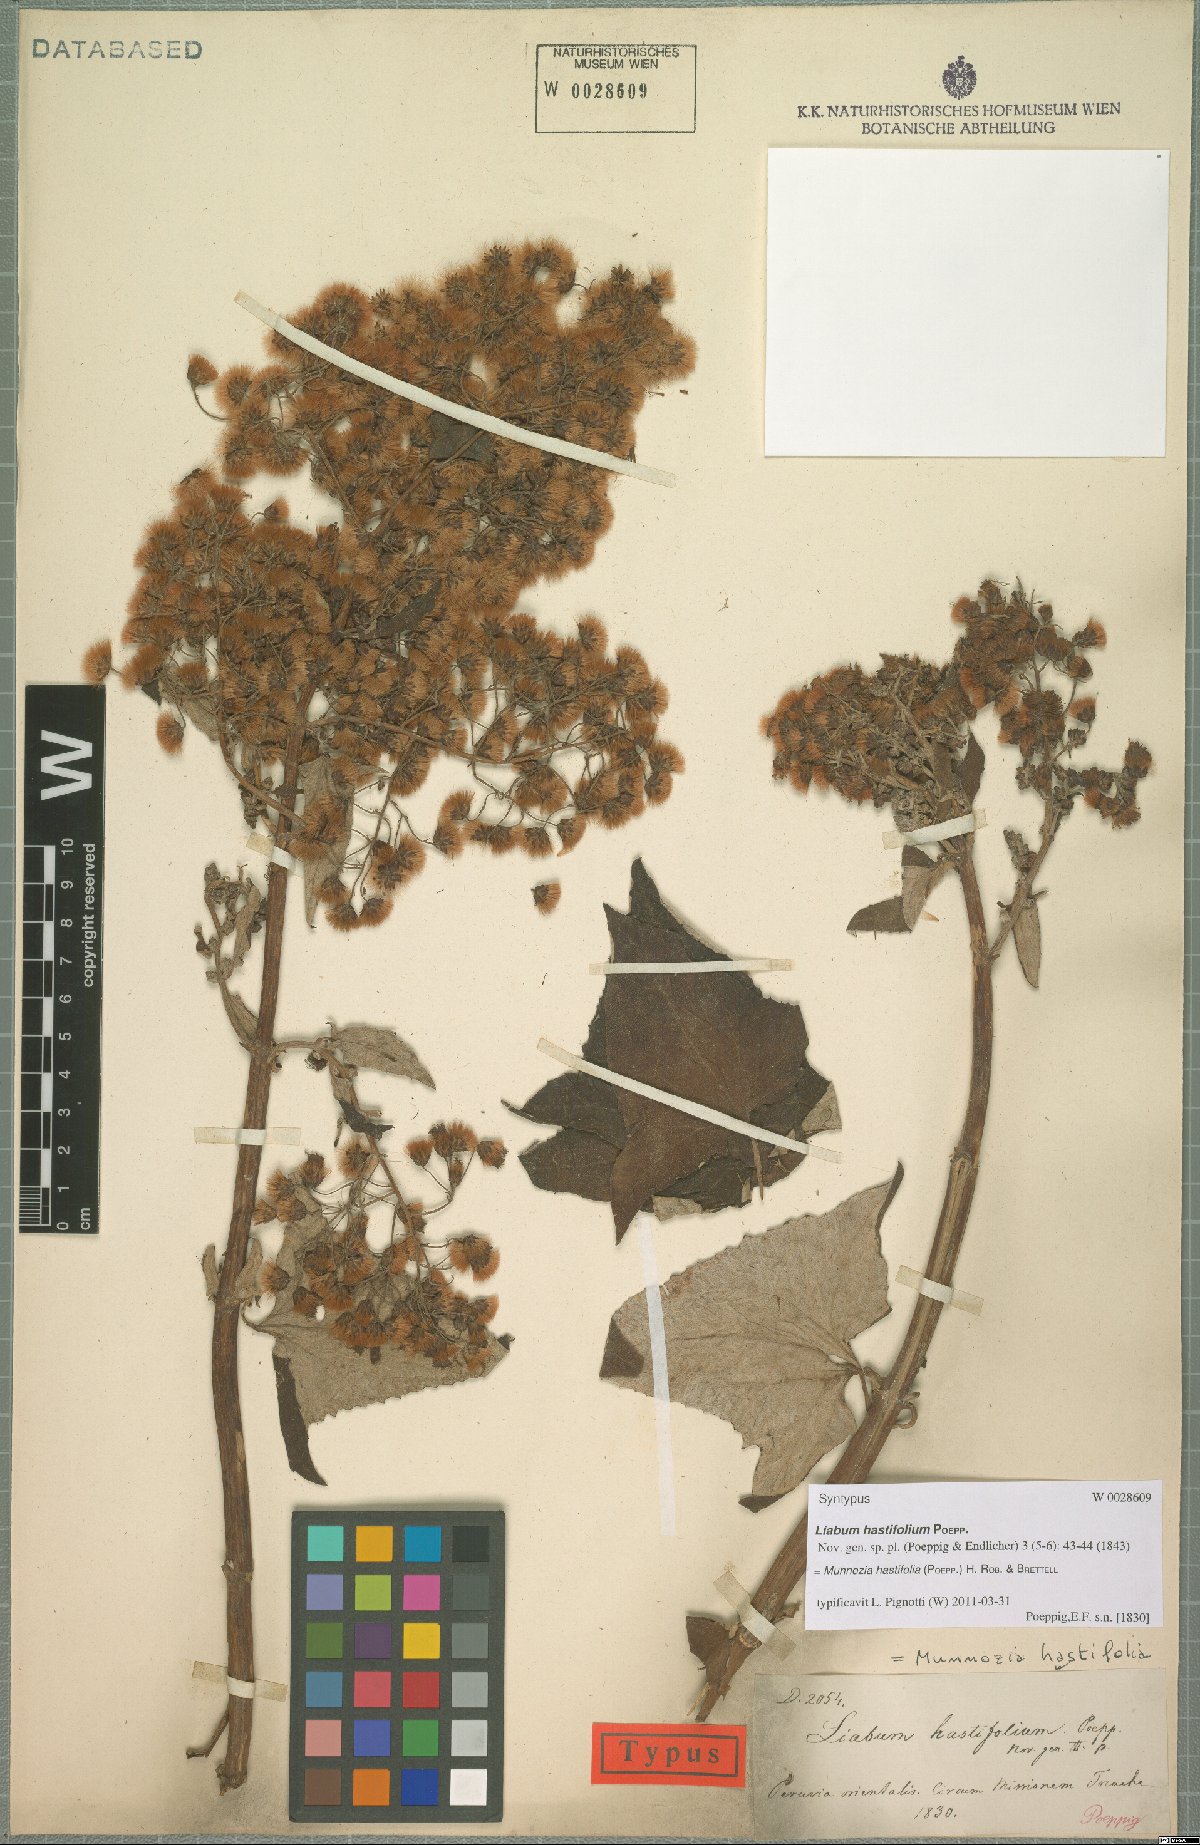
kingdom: Plantae
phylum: Tracheophyta
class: Magnoliopsida
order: Asterales
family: Asteraceae
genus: Munnozia
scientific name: Munnozia hastifolia
